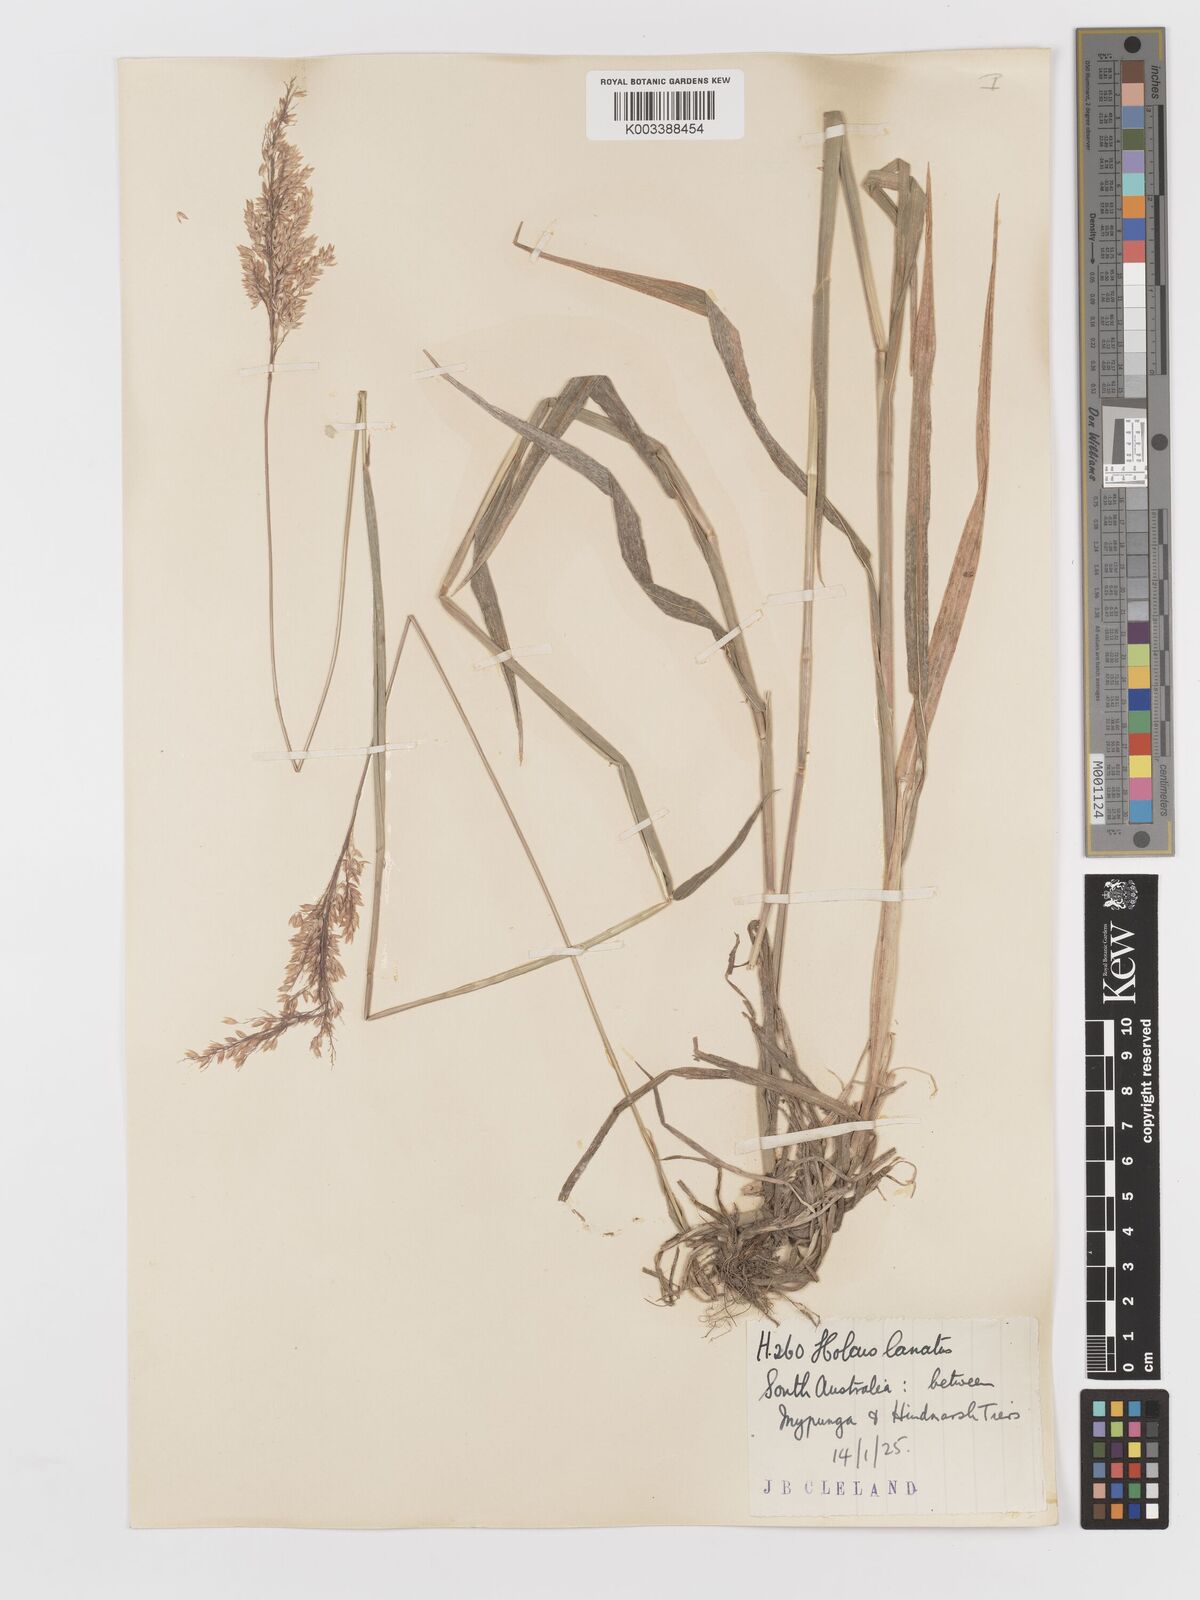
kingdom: Plantae
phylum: Tracheophyta
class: Liliopsida
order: Poales
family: Poaceae
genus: Holcus
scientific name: Holcus lanatus
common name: Yorkshire-fog
